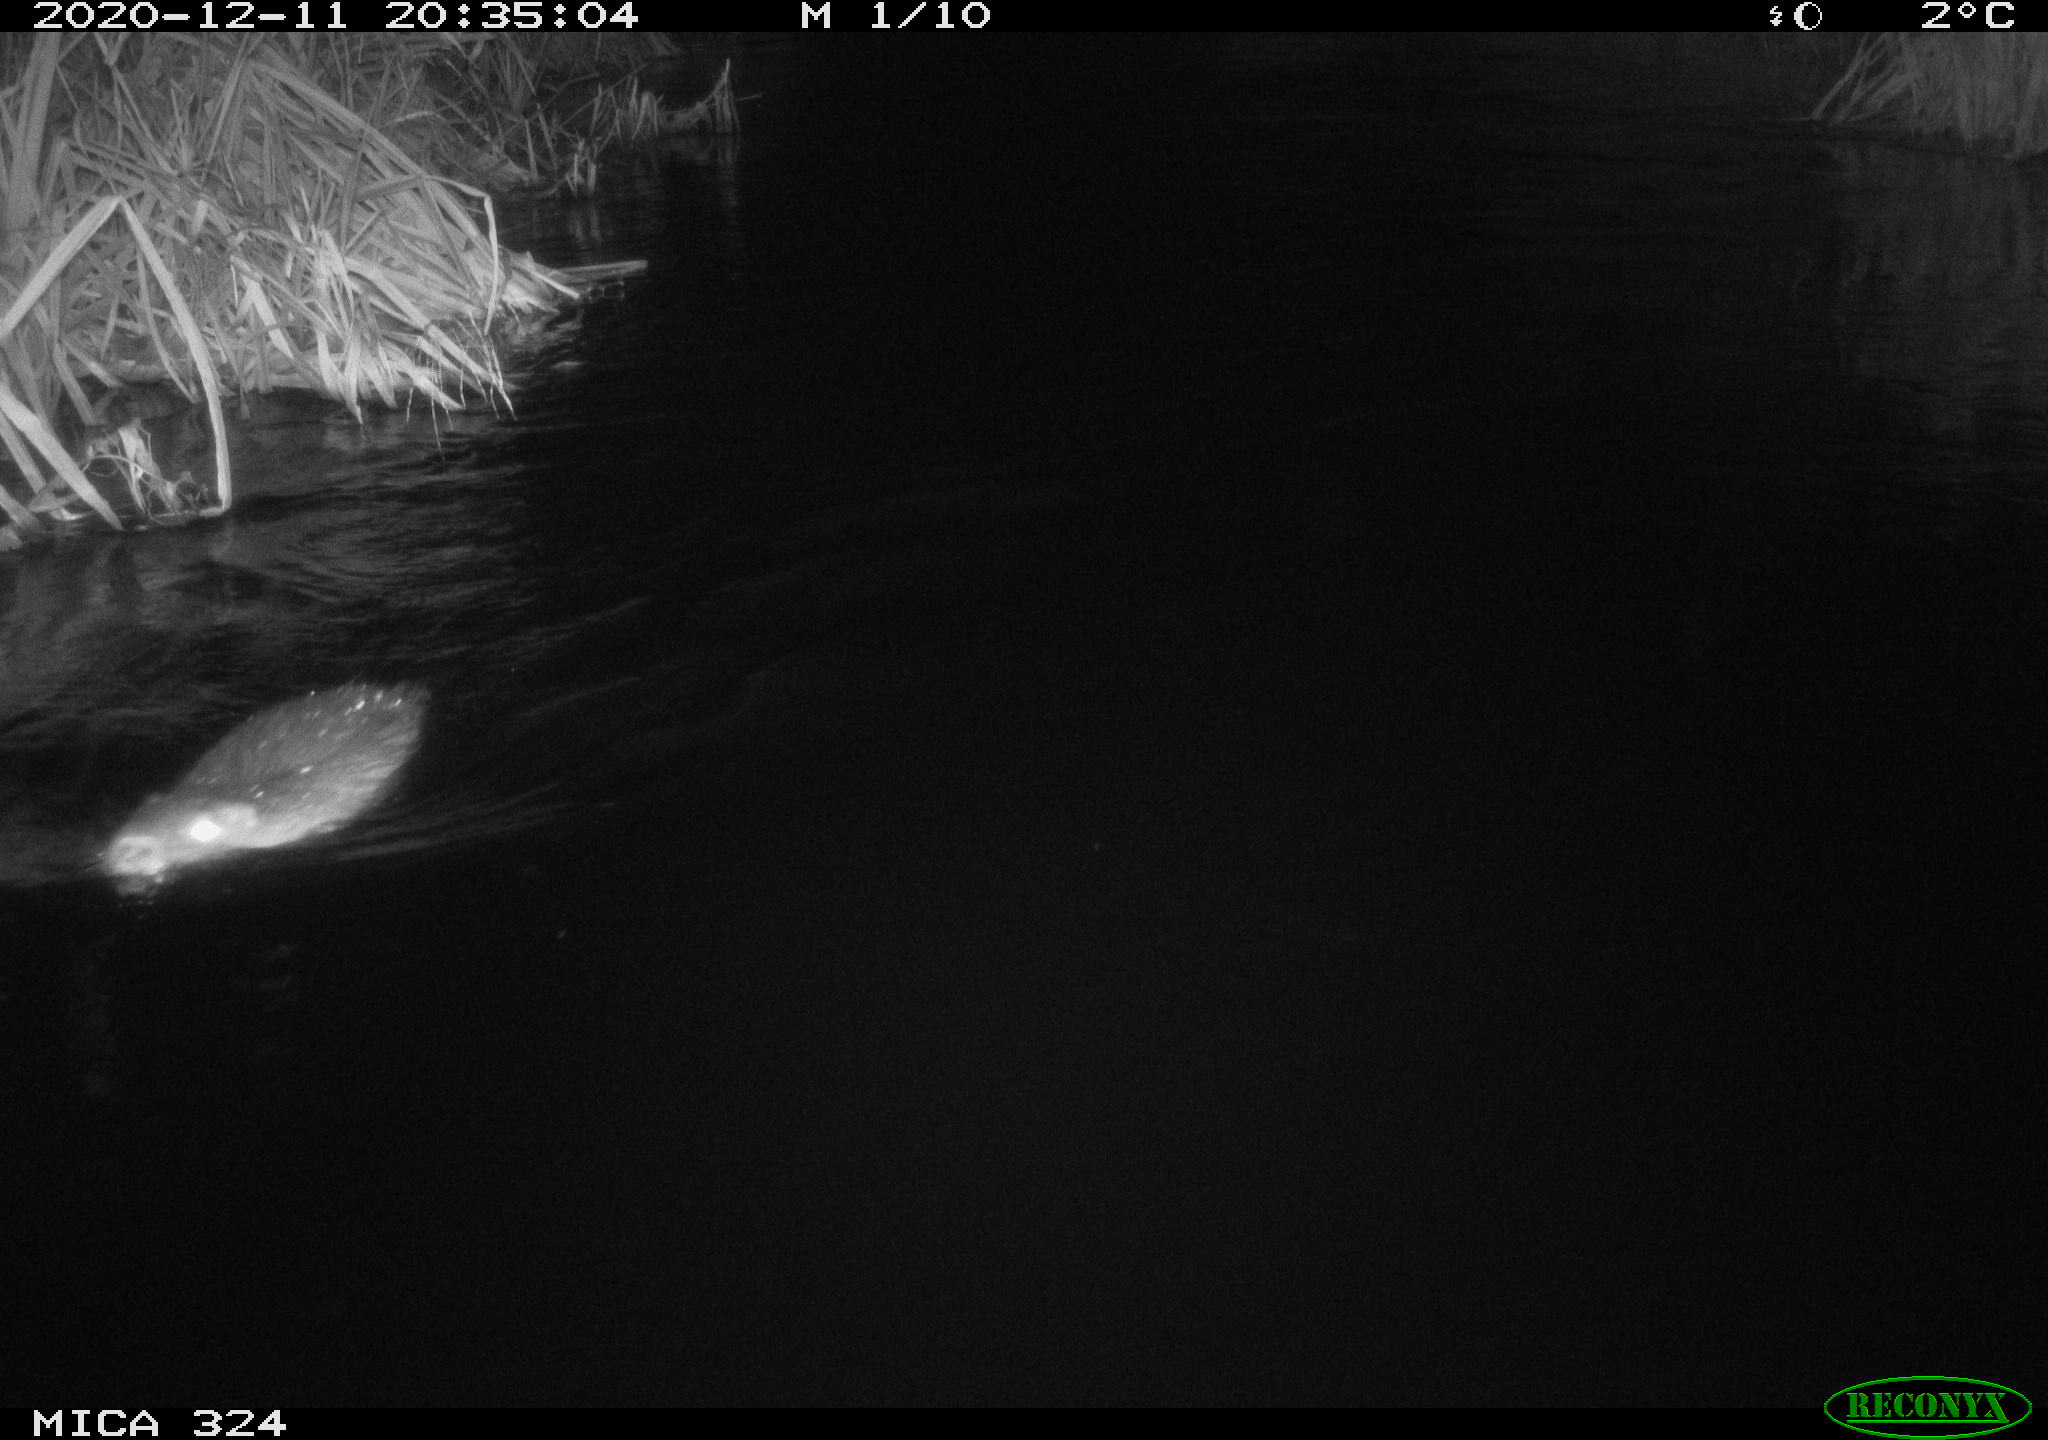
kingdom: Animalia
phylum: Chordata
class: Mammalia
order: Rodentia
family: Myocastoridae
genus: Myocastor
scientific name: Myocastor coypus
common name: Coypu
